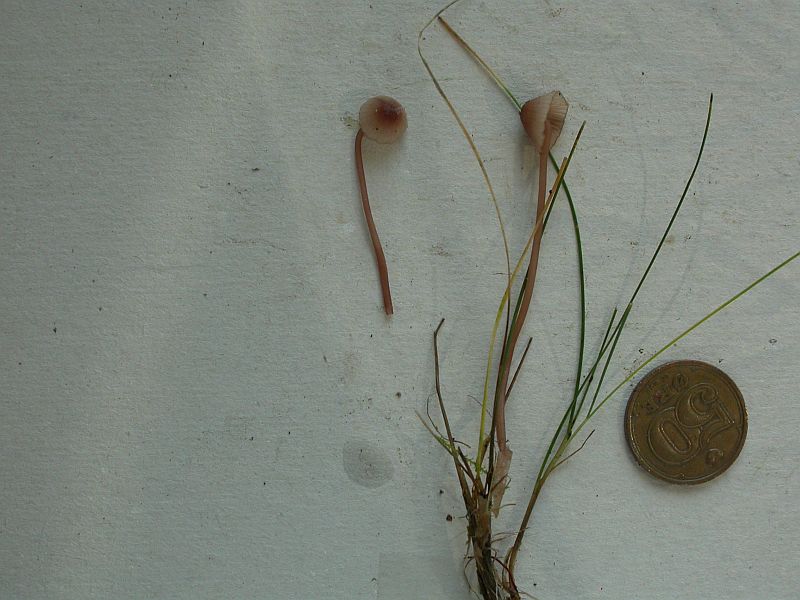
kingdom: Fungi
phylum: Basidiomycota
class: Agaricomycetes
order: Agaricales
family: Mycenaceae
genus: Mycena
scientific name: Mycena sanguinolenta
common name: rødmælket huesvamp
